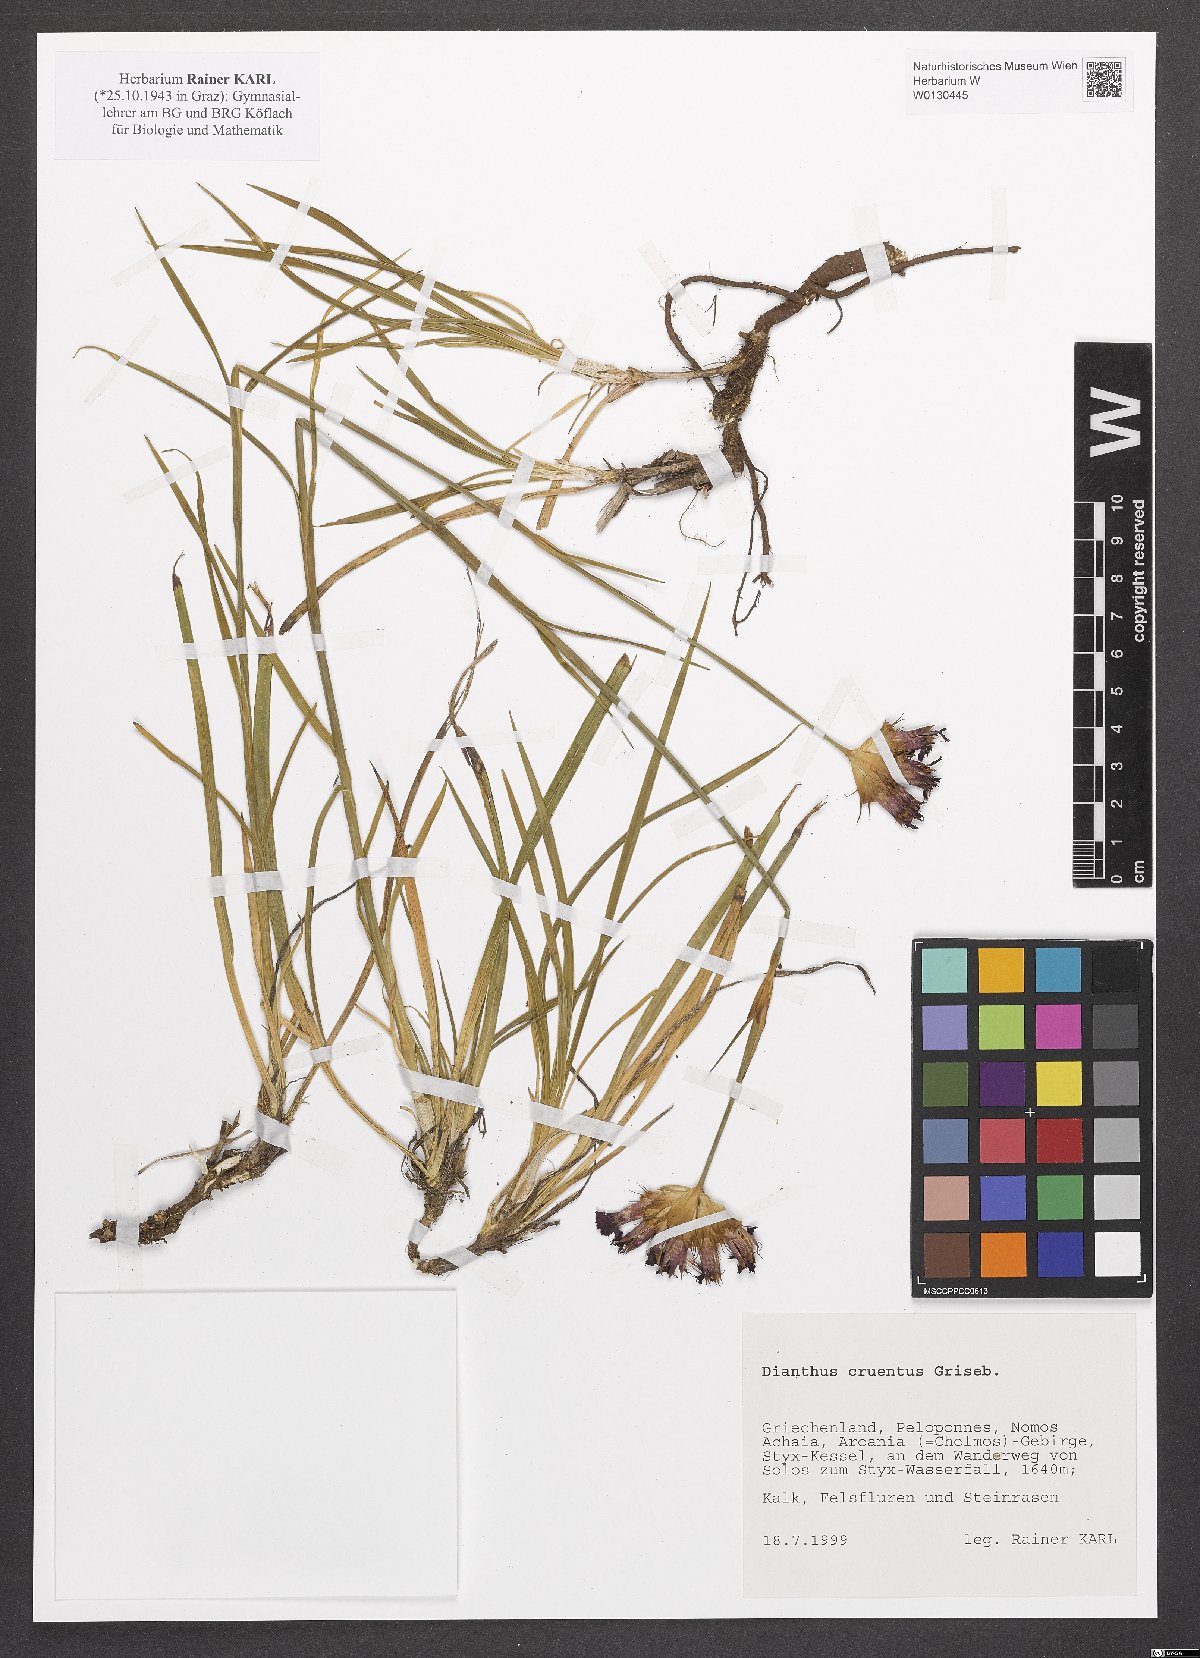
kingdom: Plantae
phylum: Tracheophyta
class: Magnoliopsida
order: Caryophyllales
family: Caryophyllaceae
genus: Dianthus
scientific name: Dianthus cruentus
